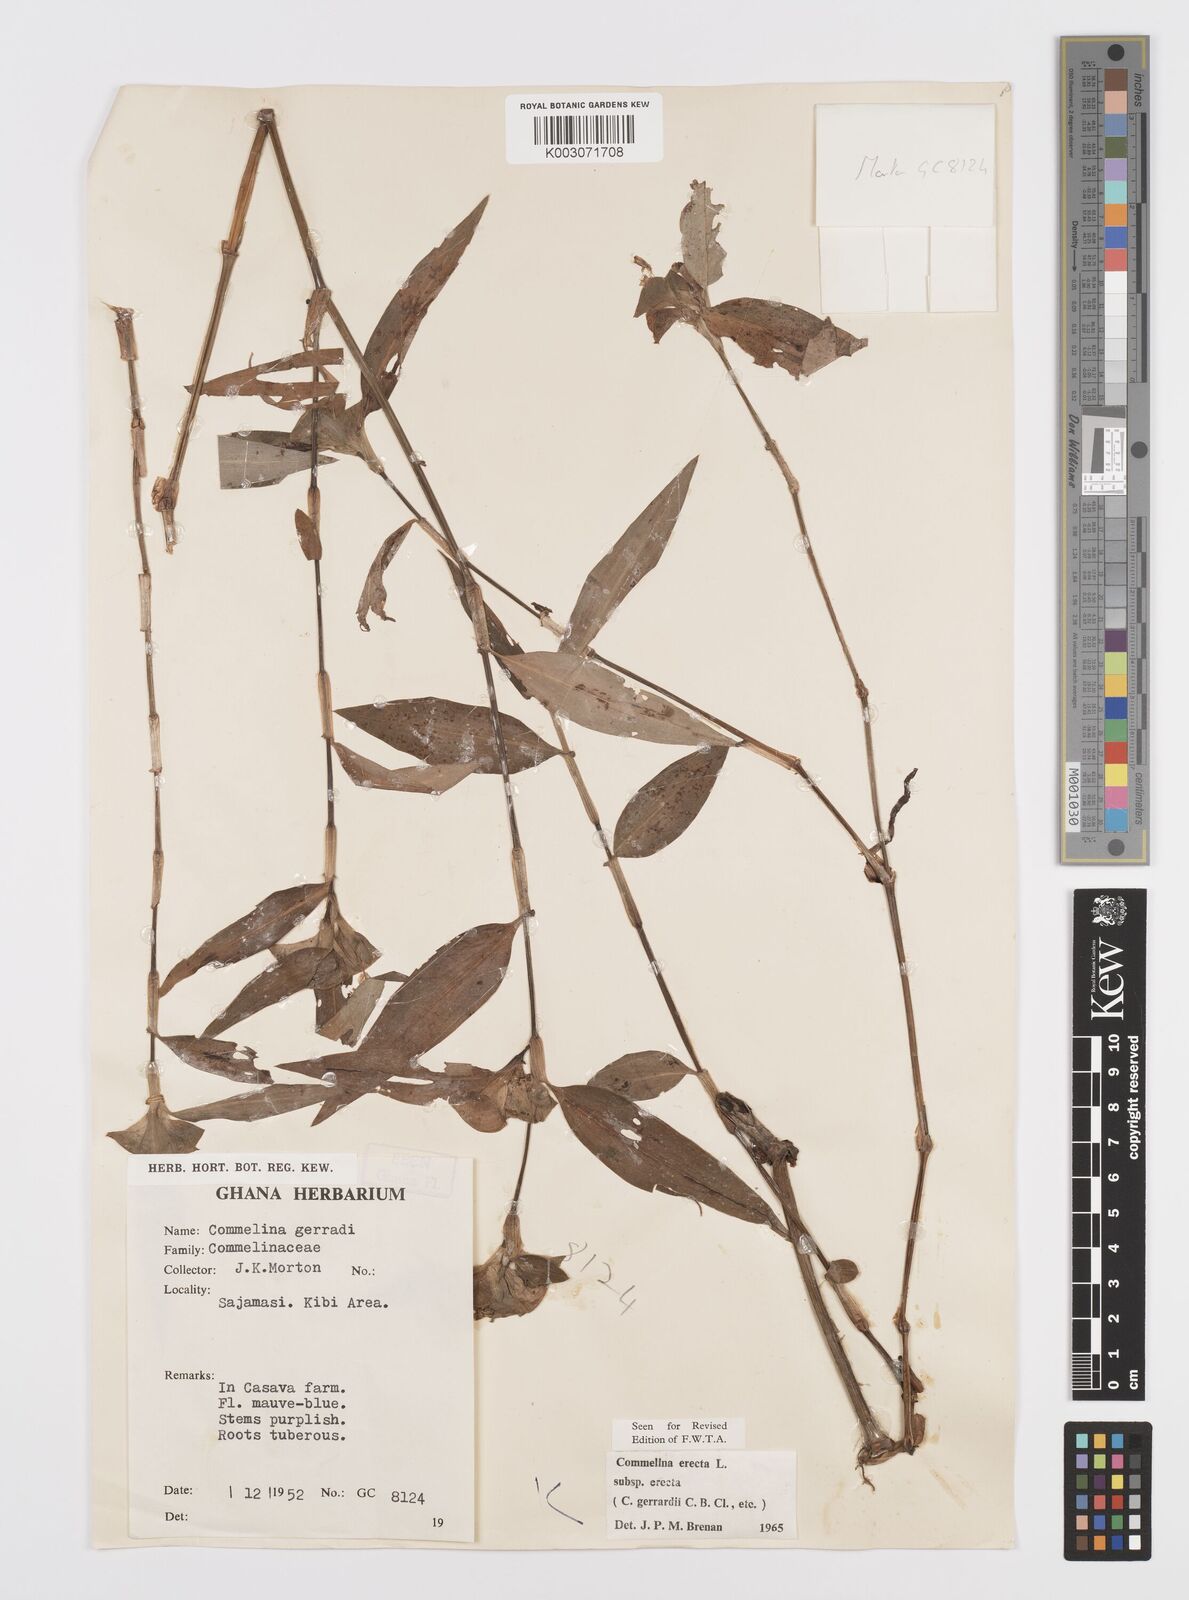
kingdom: Plantae
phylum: Tracheophyta
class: Liliopsida
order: Commelinales
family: Commelinaceae
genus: Commelina
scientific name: Commelina erecta
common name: Blousel blommetjie
